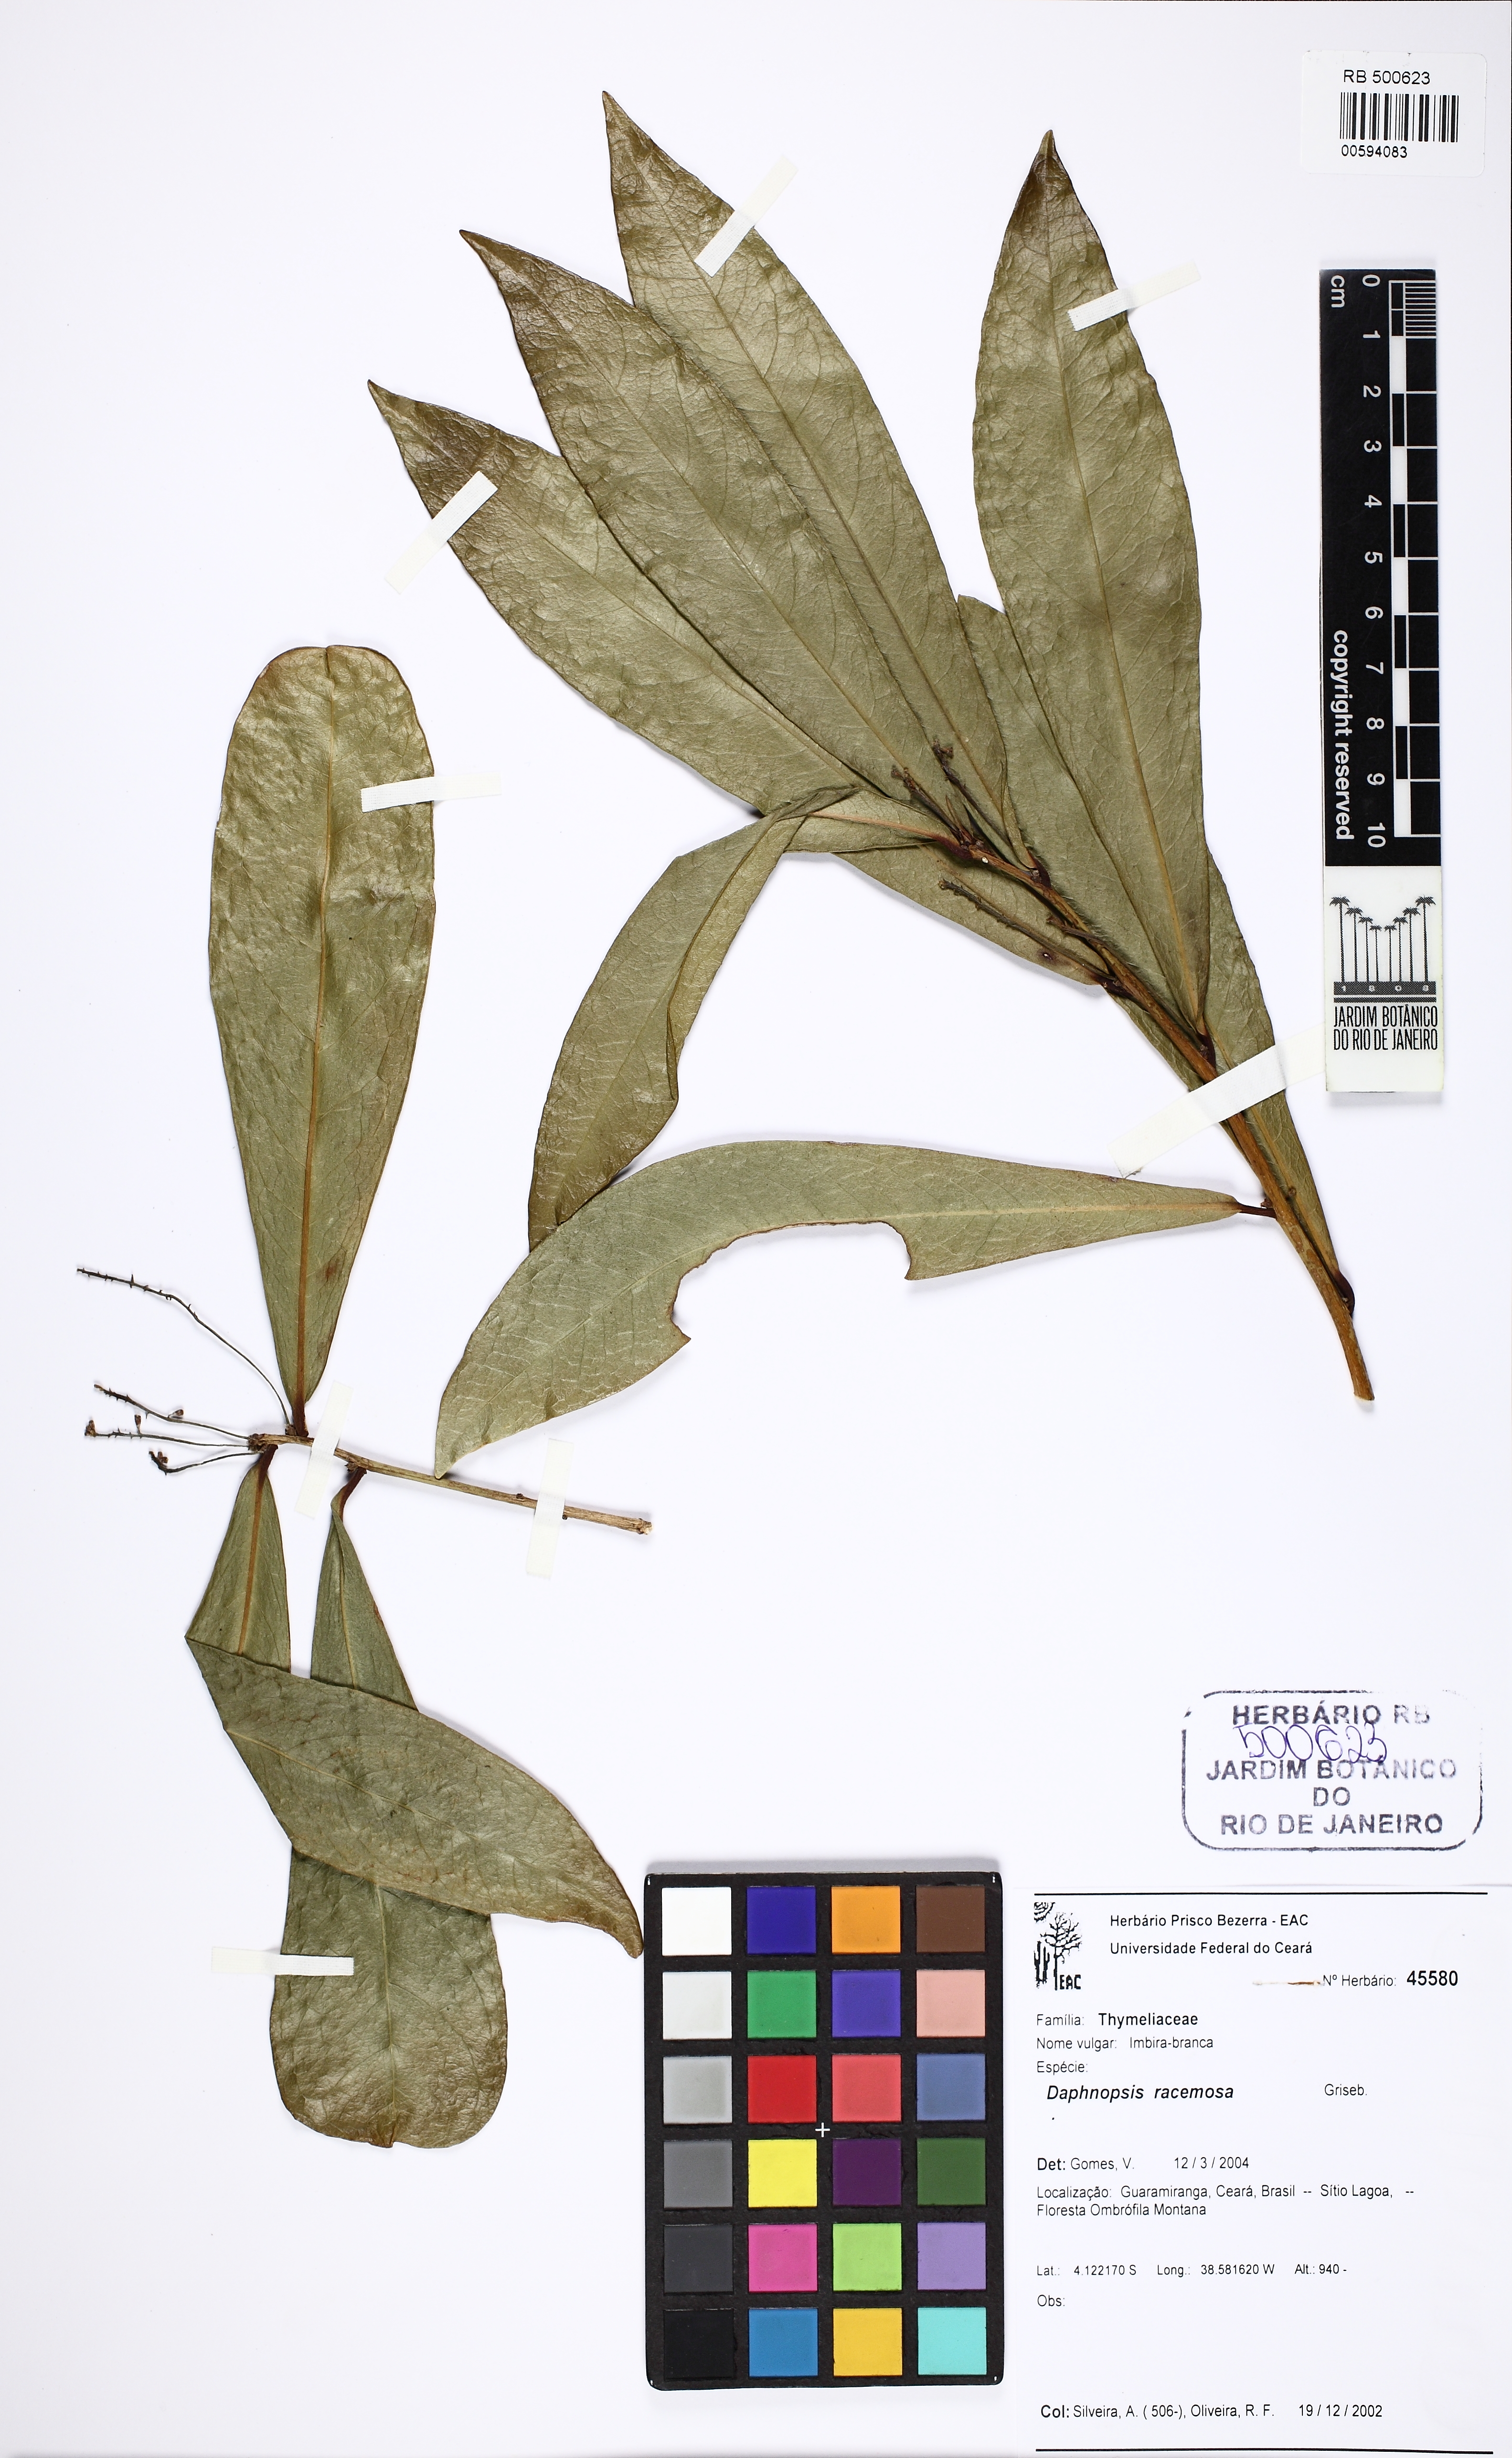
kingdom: Plantae
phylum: Tracheophyta
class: Magnoliopsida
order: Malvales
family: Thymelaeaceae
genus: Daphnopsis
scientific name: Daphnopsis racemosa
